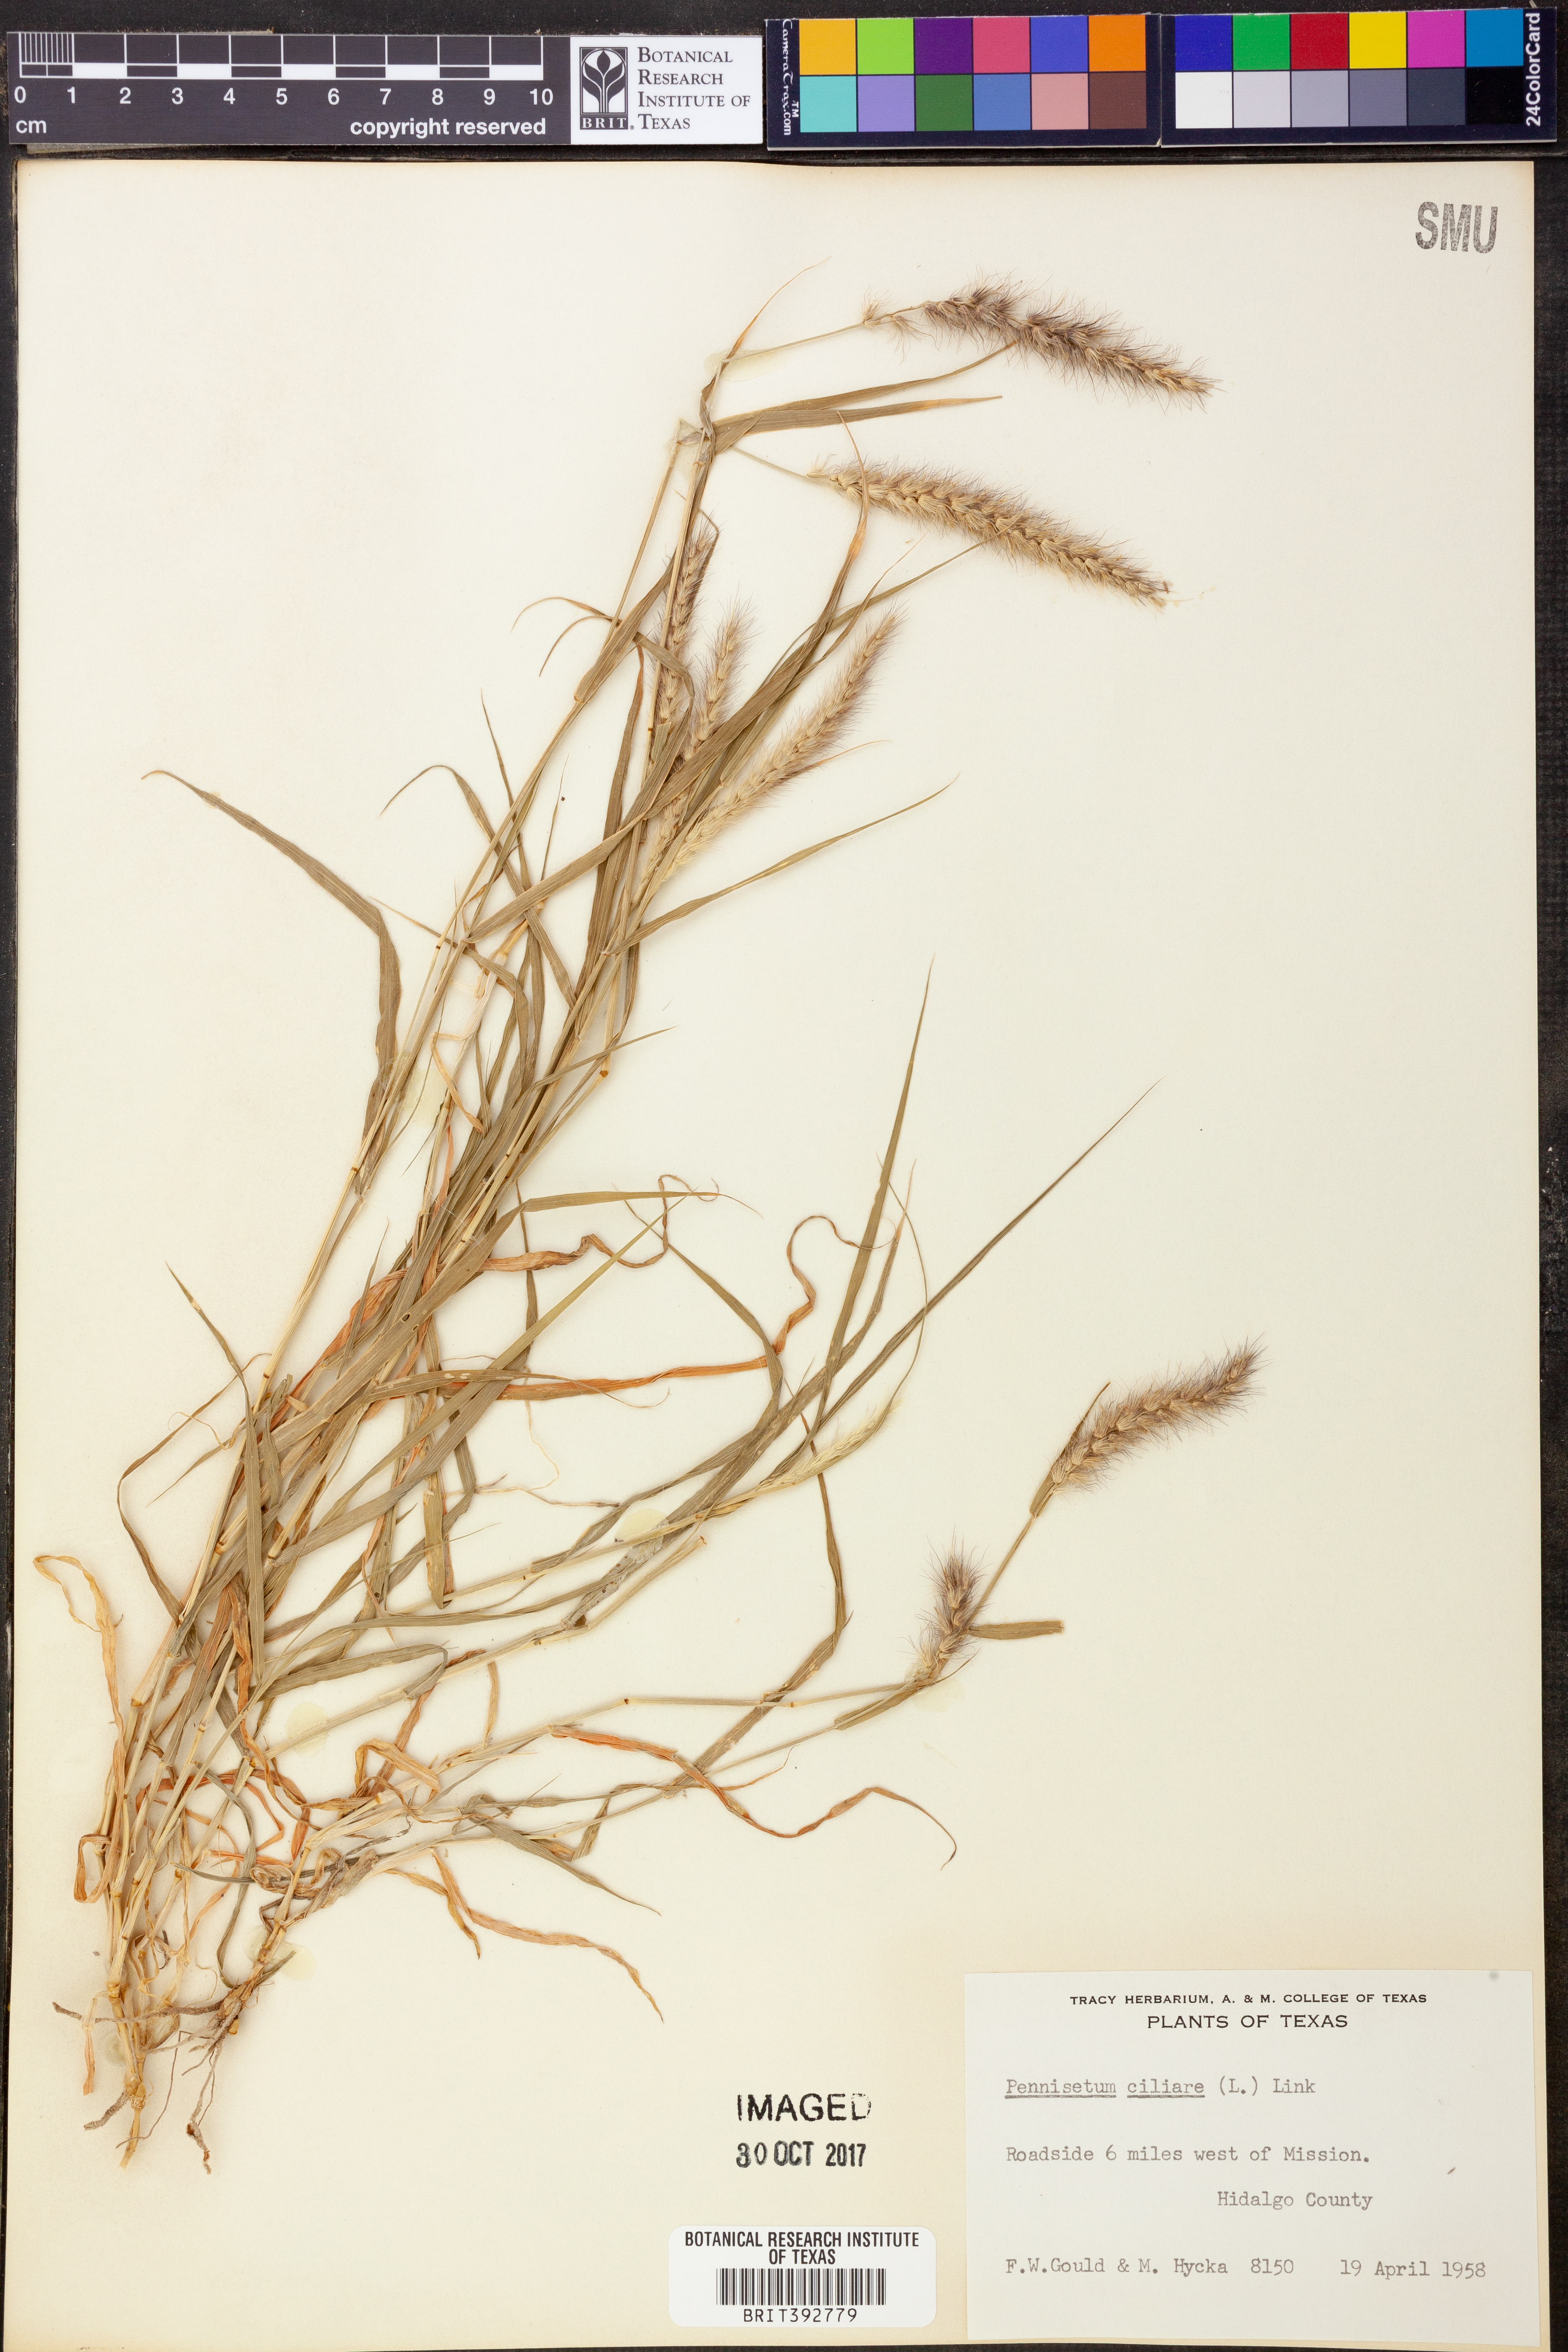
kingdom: Plantae
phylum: Tracheophyta
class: Liliopsida
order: Poales
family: Poaceae
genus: Cenchrus
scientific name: Cenchrus ciliaris
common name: Buffelgrass
